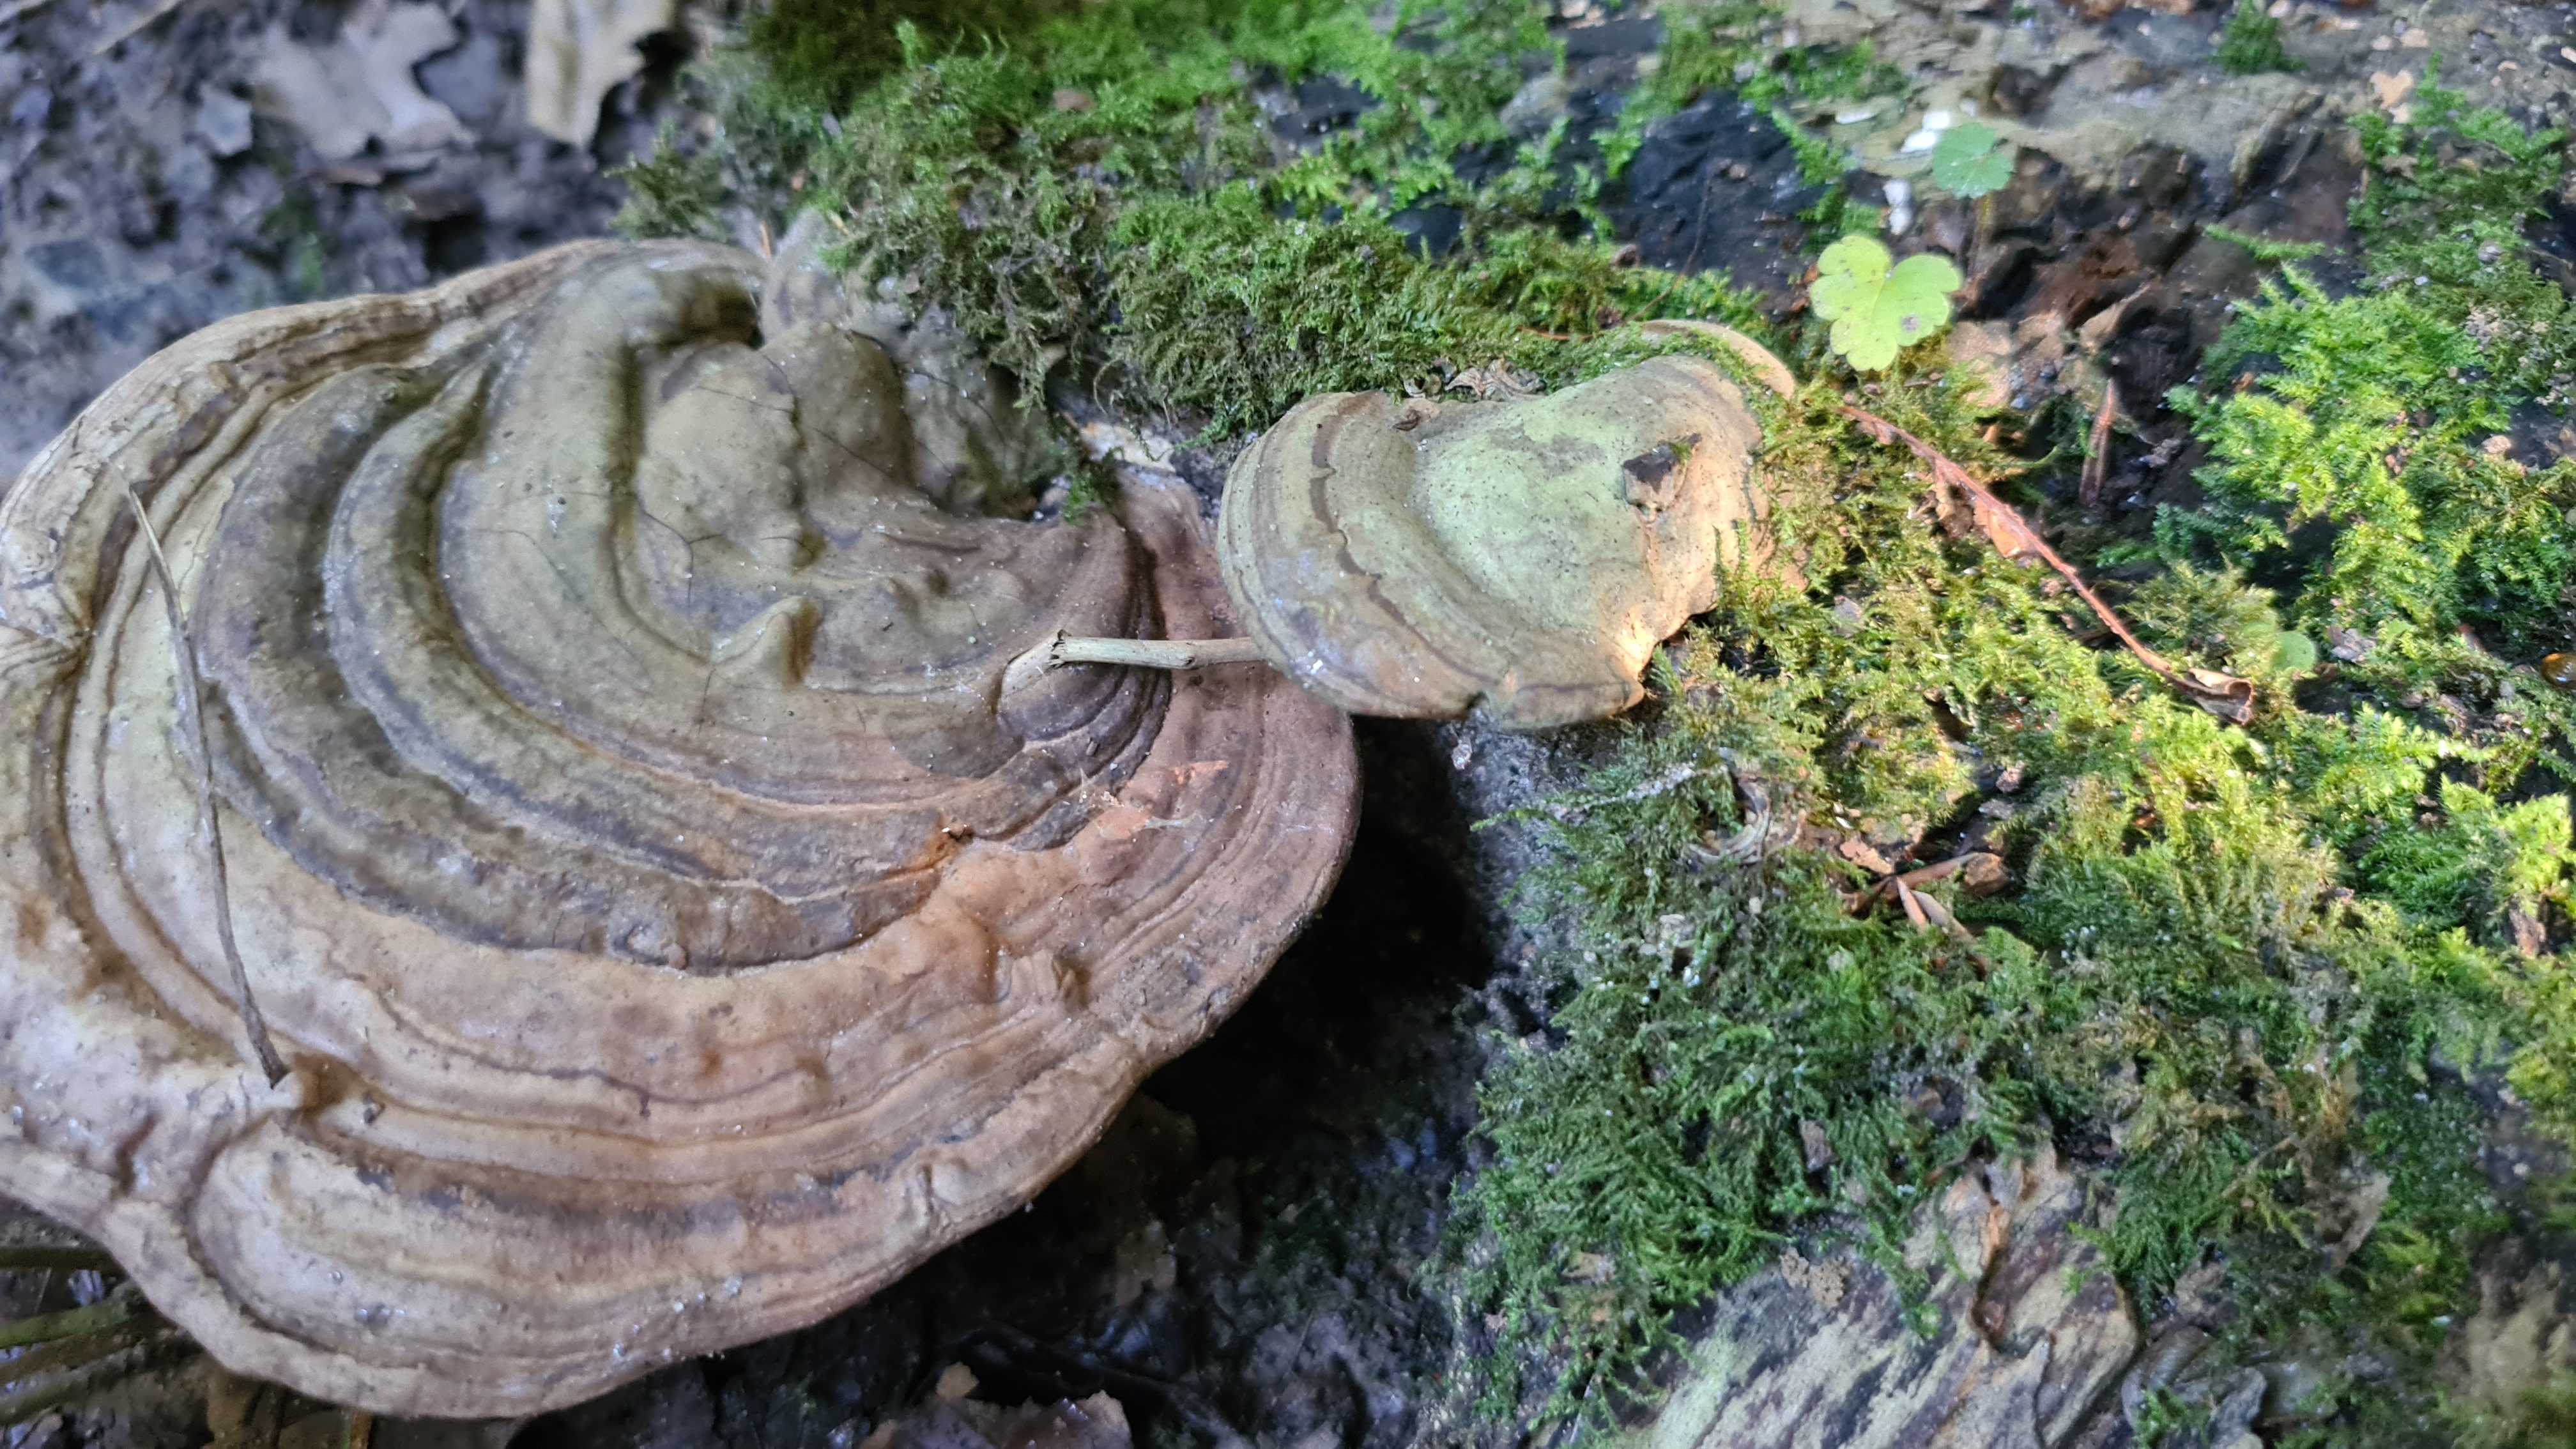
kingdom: Fungi
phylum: Basidiomycota
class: Agaricomycetes
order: Polyporales
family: Polyporaceae
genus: Ganoderma
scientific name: Ganoderma applanatum
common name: flad lakporesvamp
